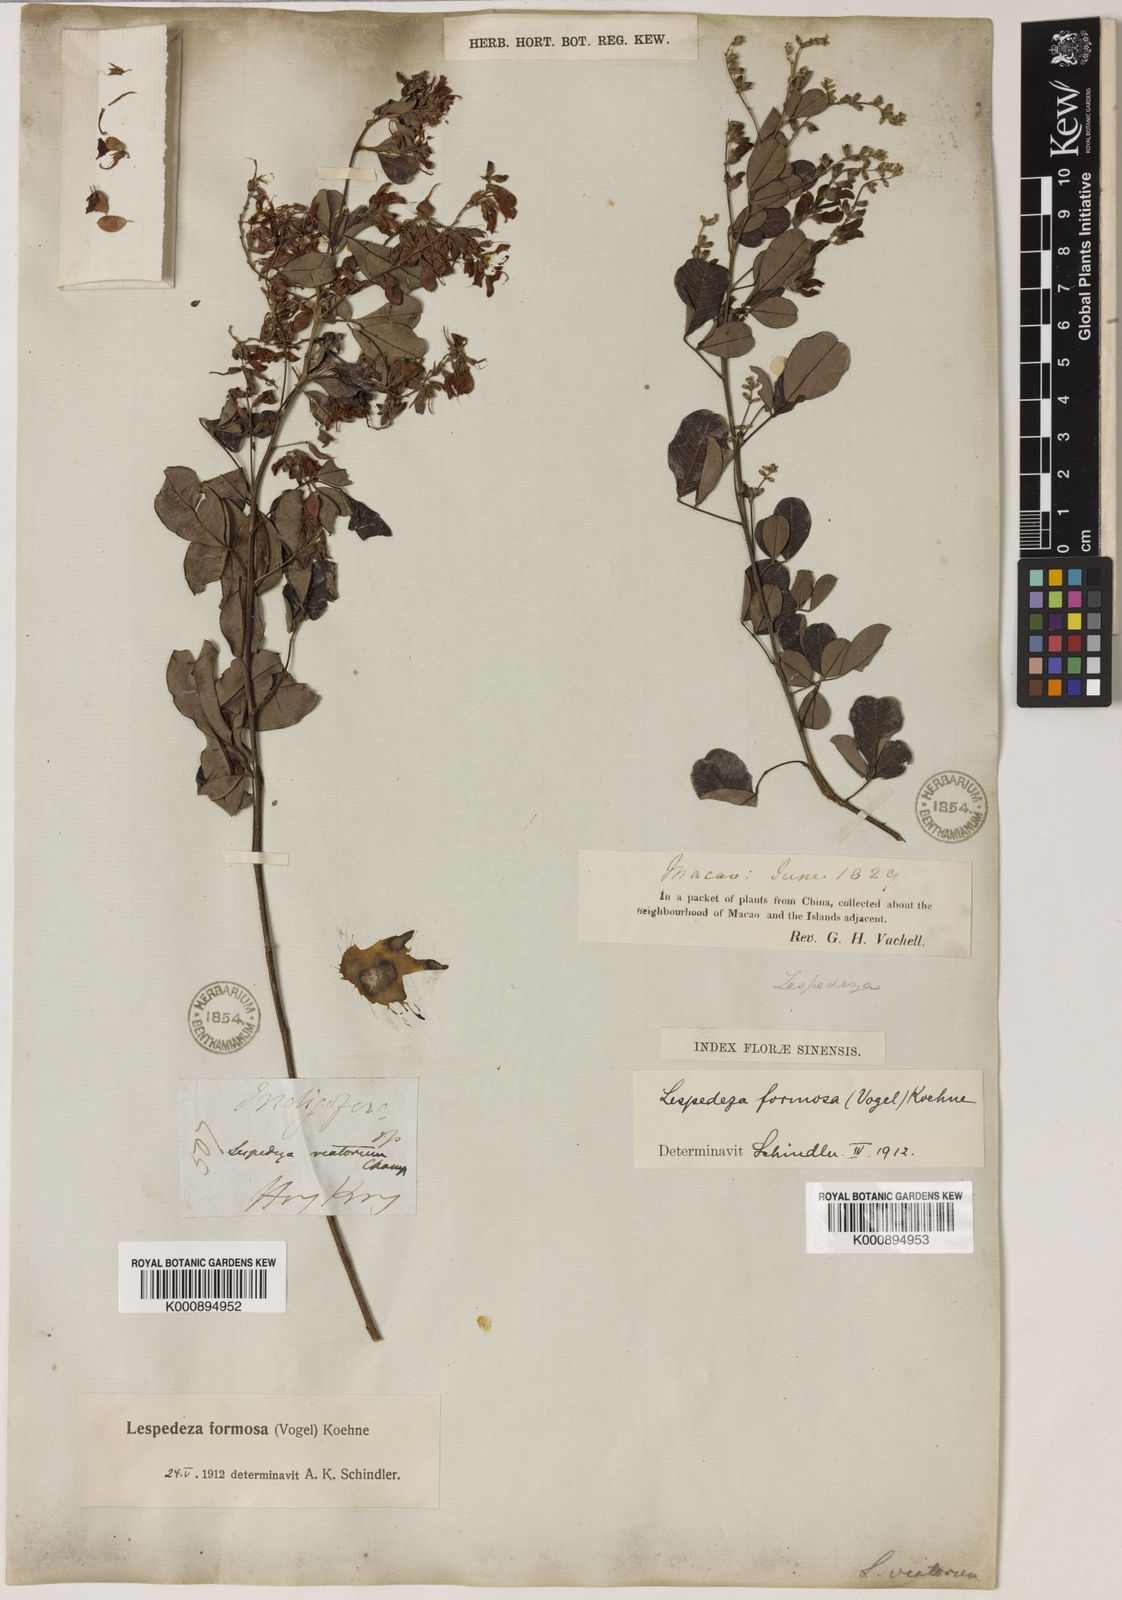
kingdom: Plantae
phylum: Tracheophyta
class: Magnoliopsida
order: Fabales
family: Fabaceae
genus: Lespedeza
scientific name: Lespedeza thunbergii
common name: Thunberg's lespedeza
